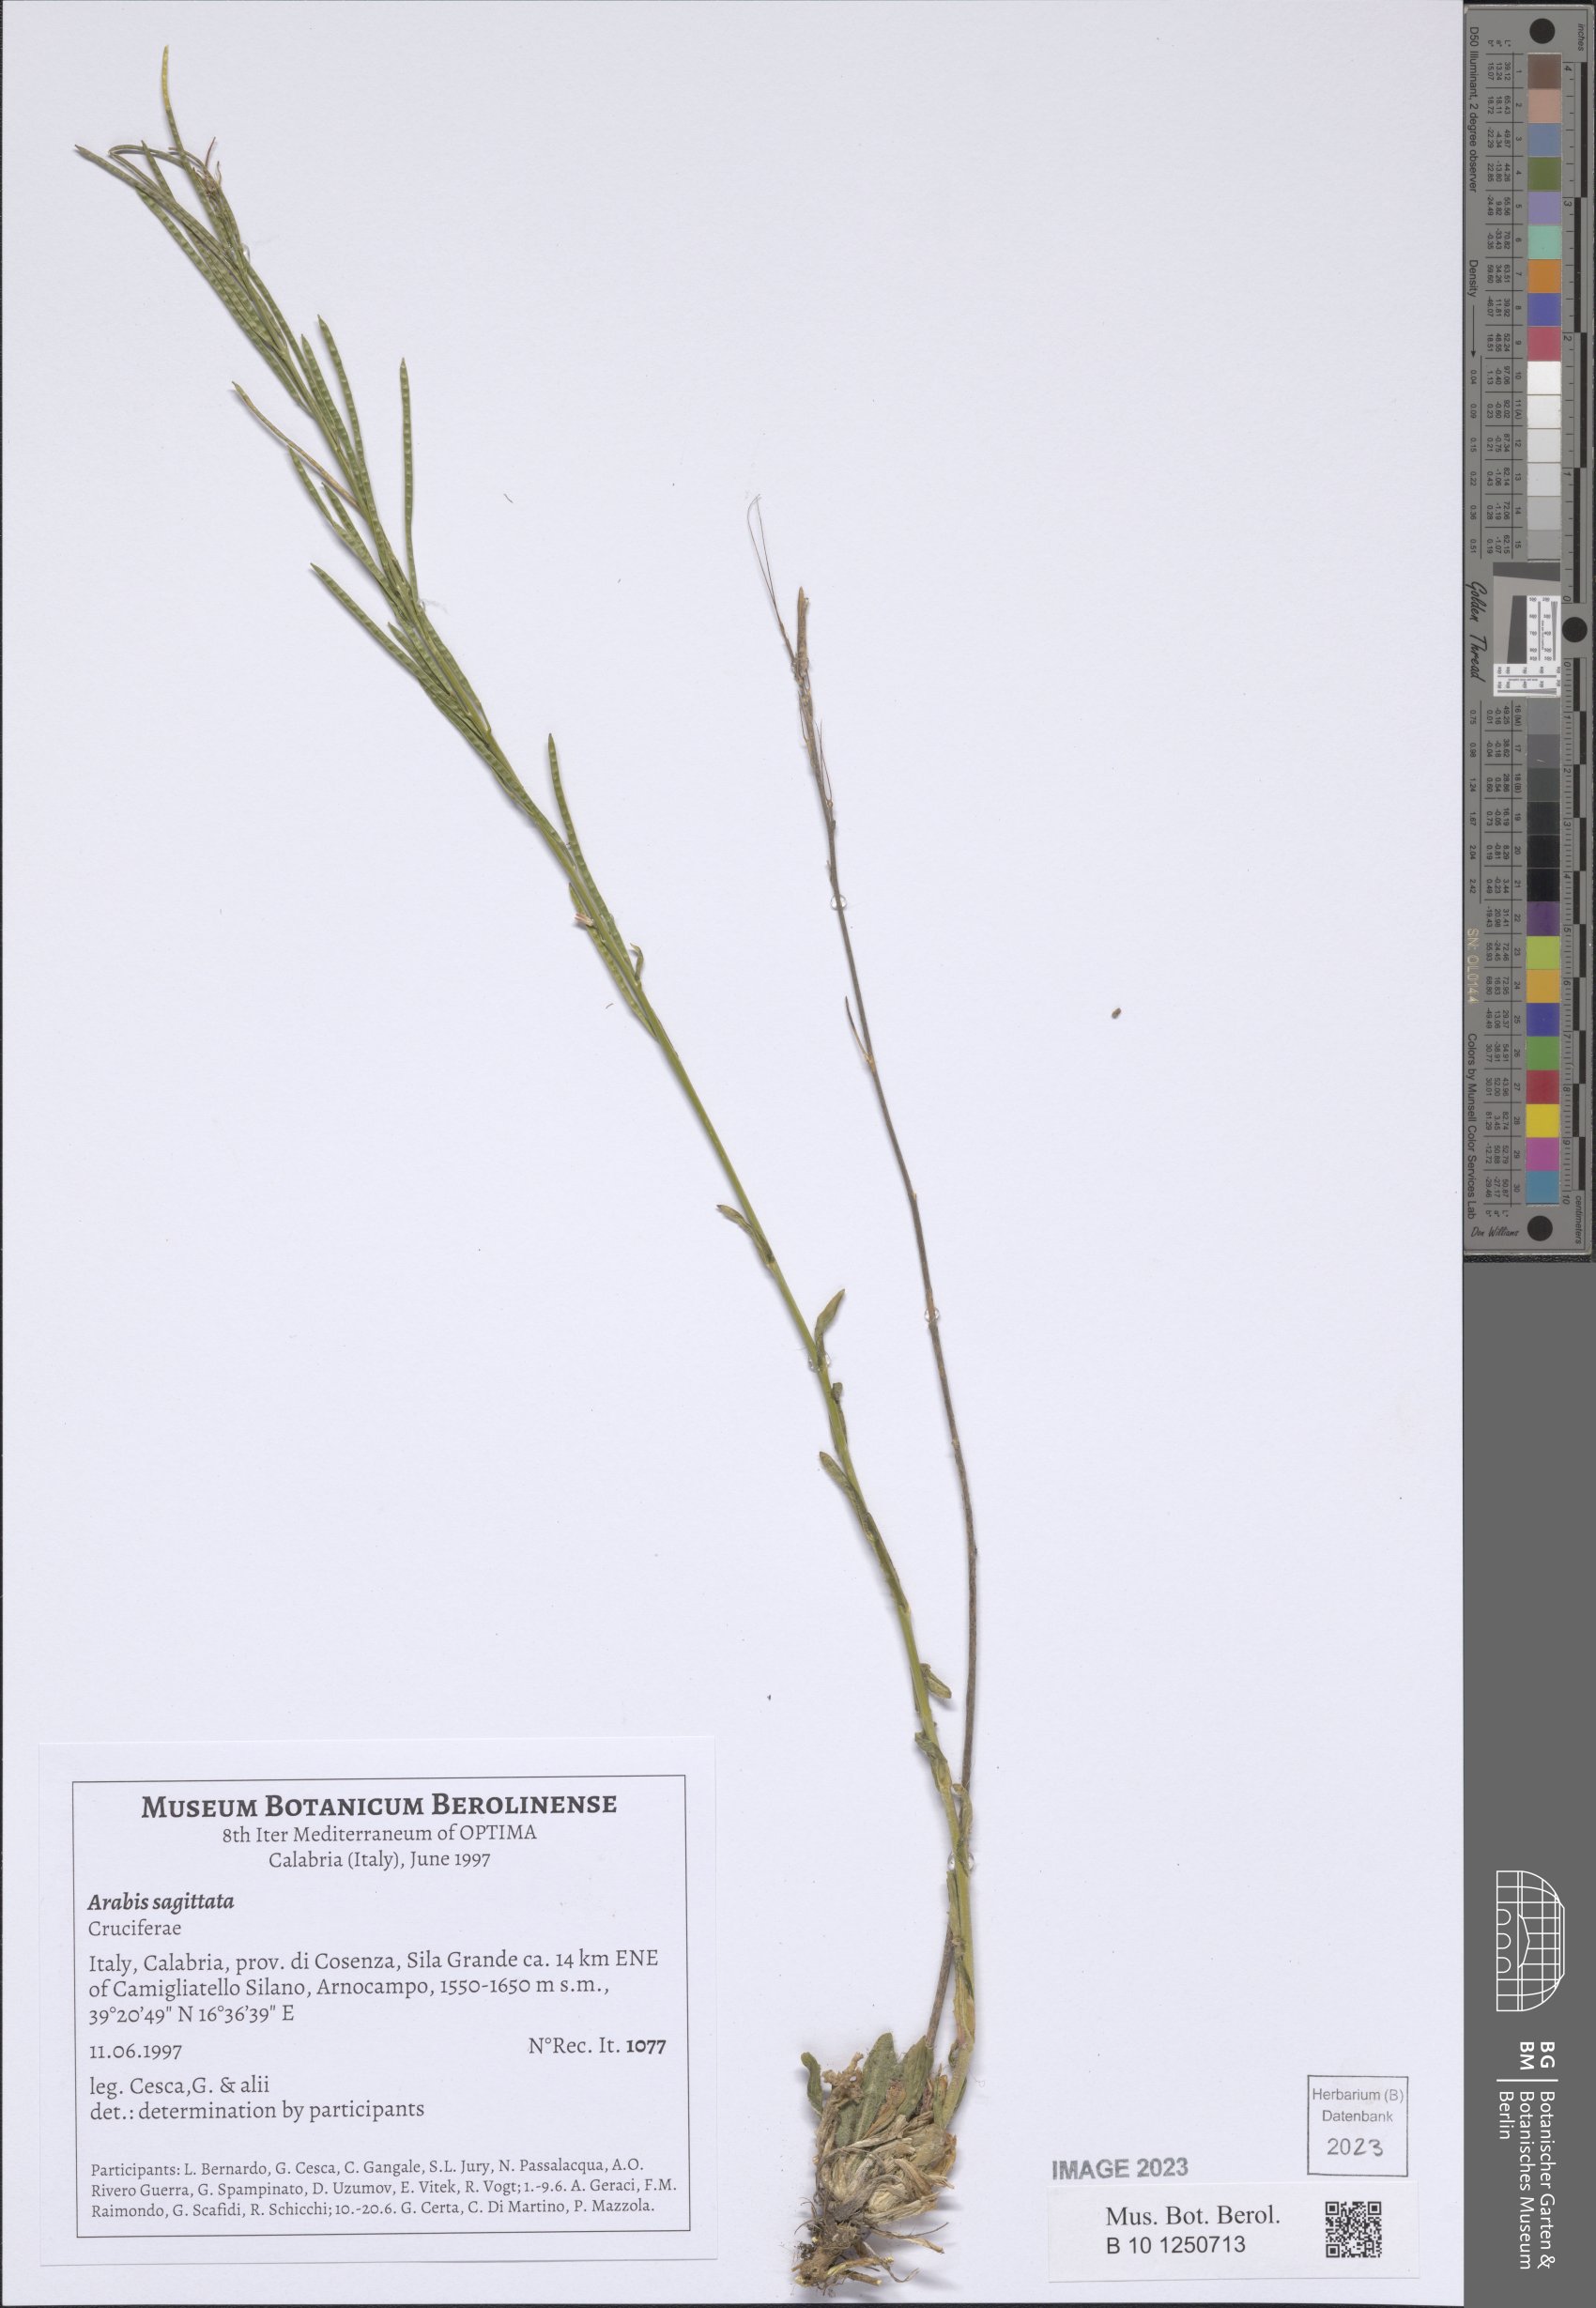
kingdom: Plantae
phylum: Tracheophyta
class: Magnoliopsida
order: Brassicales
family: Brassicaceae
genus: Arabis
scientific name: Arabis sagittata
